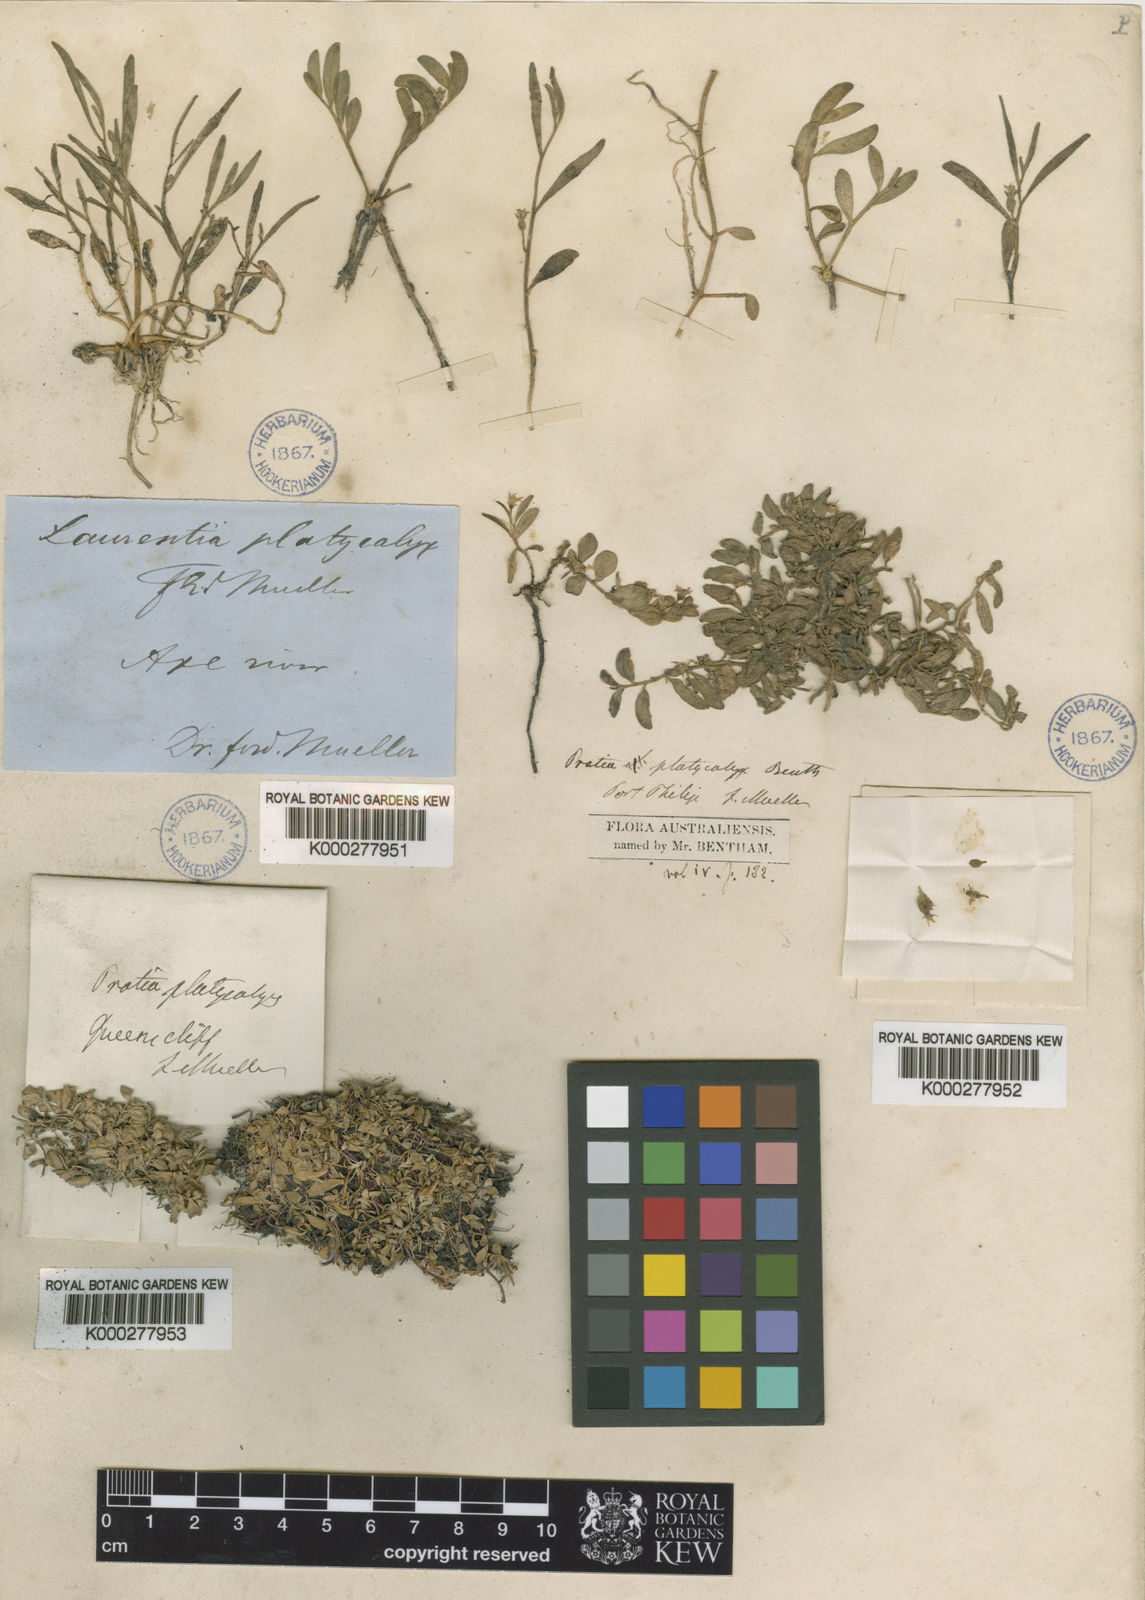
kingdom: Plantae
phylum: Tracheophyta
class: Magnoliopsida
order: Asterales
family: Campanulaceae
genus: Lobelia
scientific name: Lobelia irrigua
